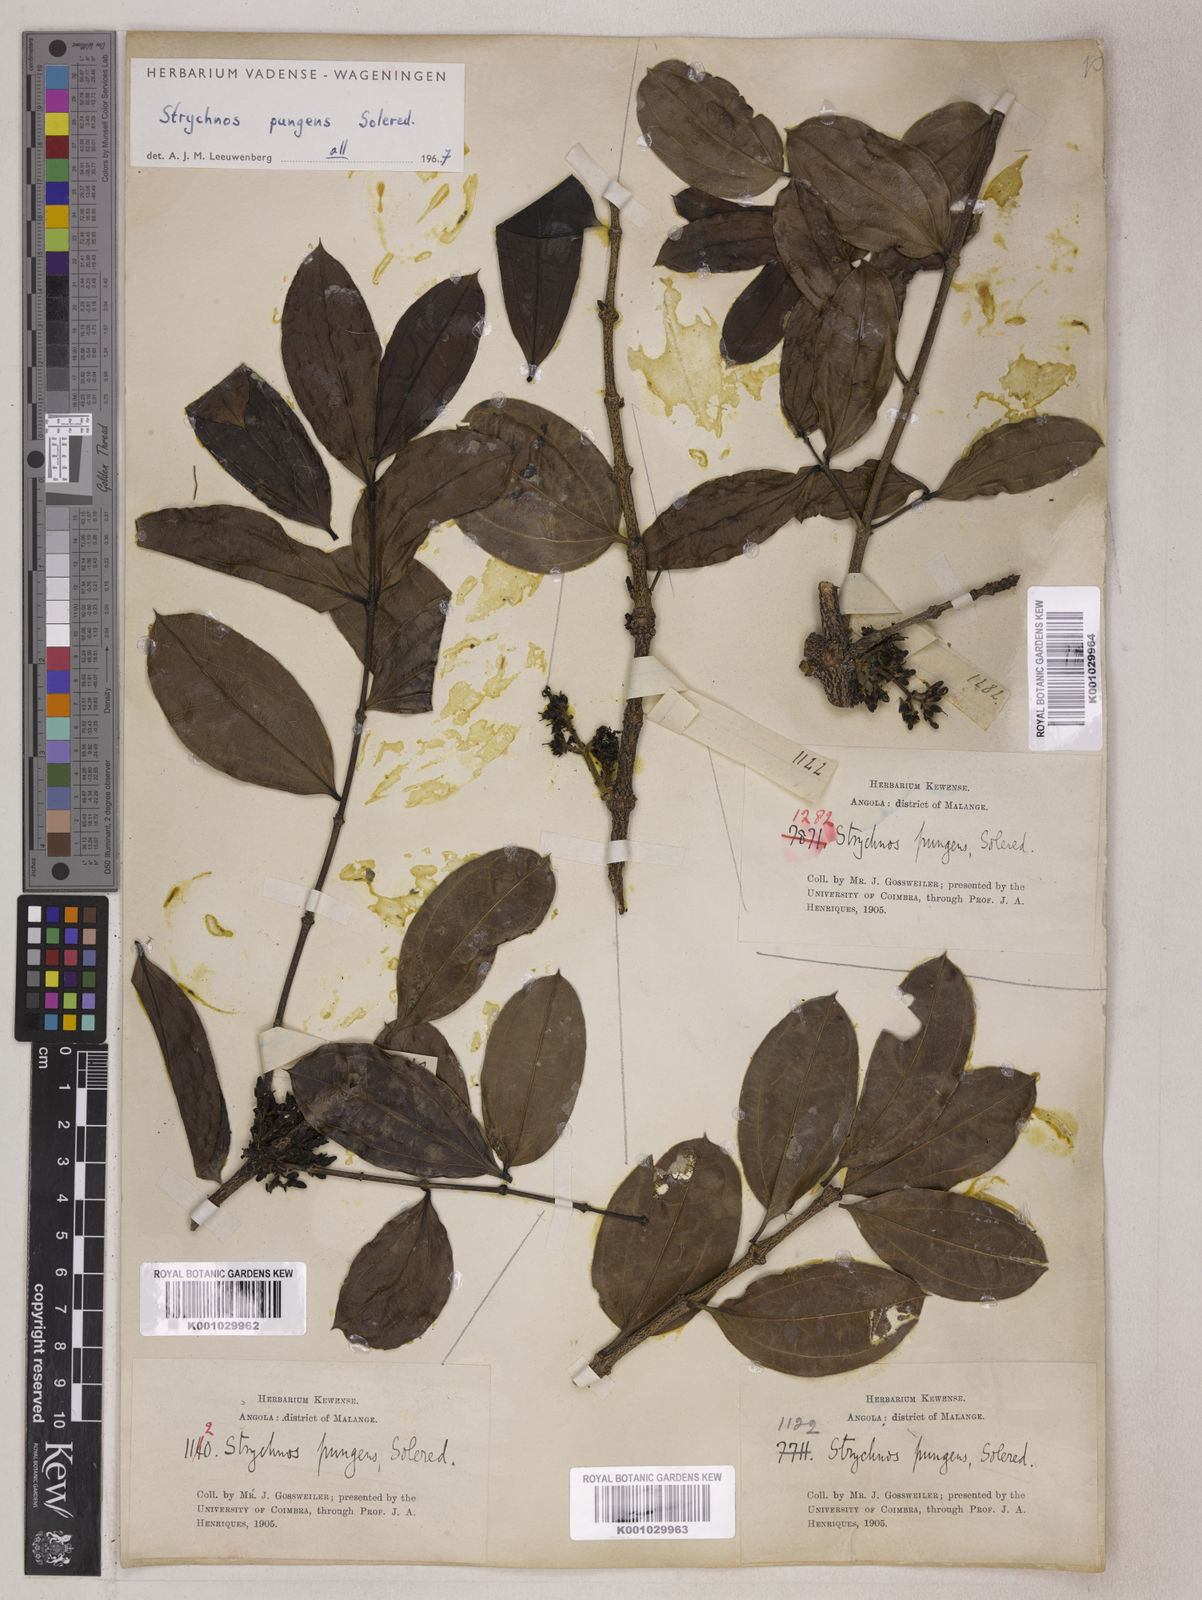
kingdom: Plantae
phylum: Tracheophyta
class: Magnoliopsida
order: Gentianales
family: Loganiaceae
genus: Strychnos
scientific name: Strychnos pungens
